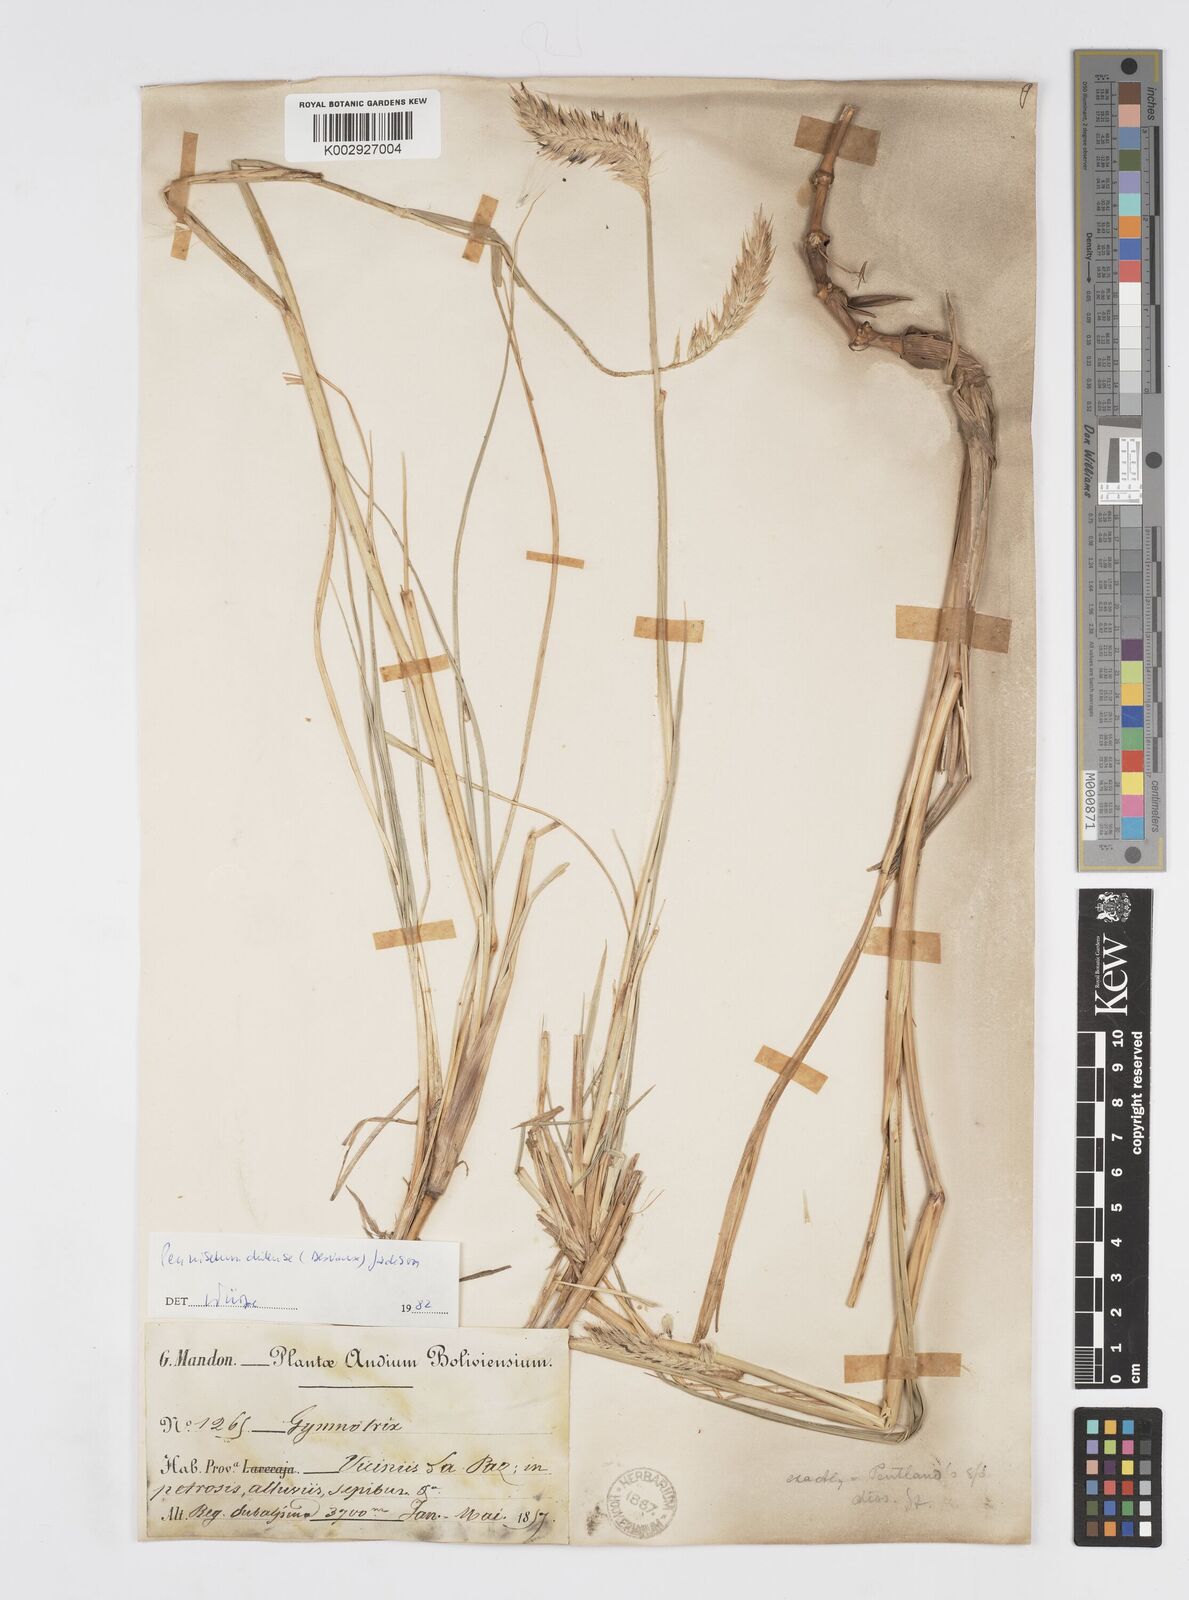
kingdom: Plantae
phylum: Tracheophyta
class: Liliopsida
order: Poales
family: Poaceae
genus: Cenchrus
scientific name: Cenchrus chilensis
